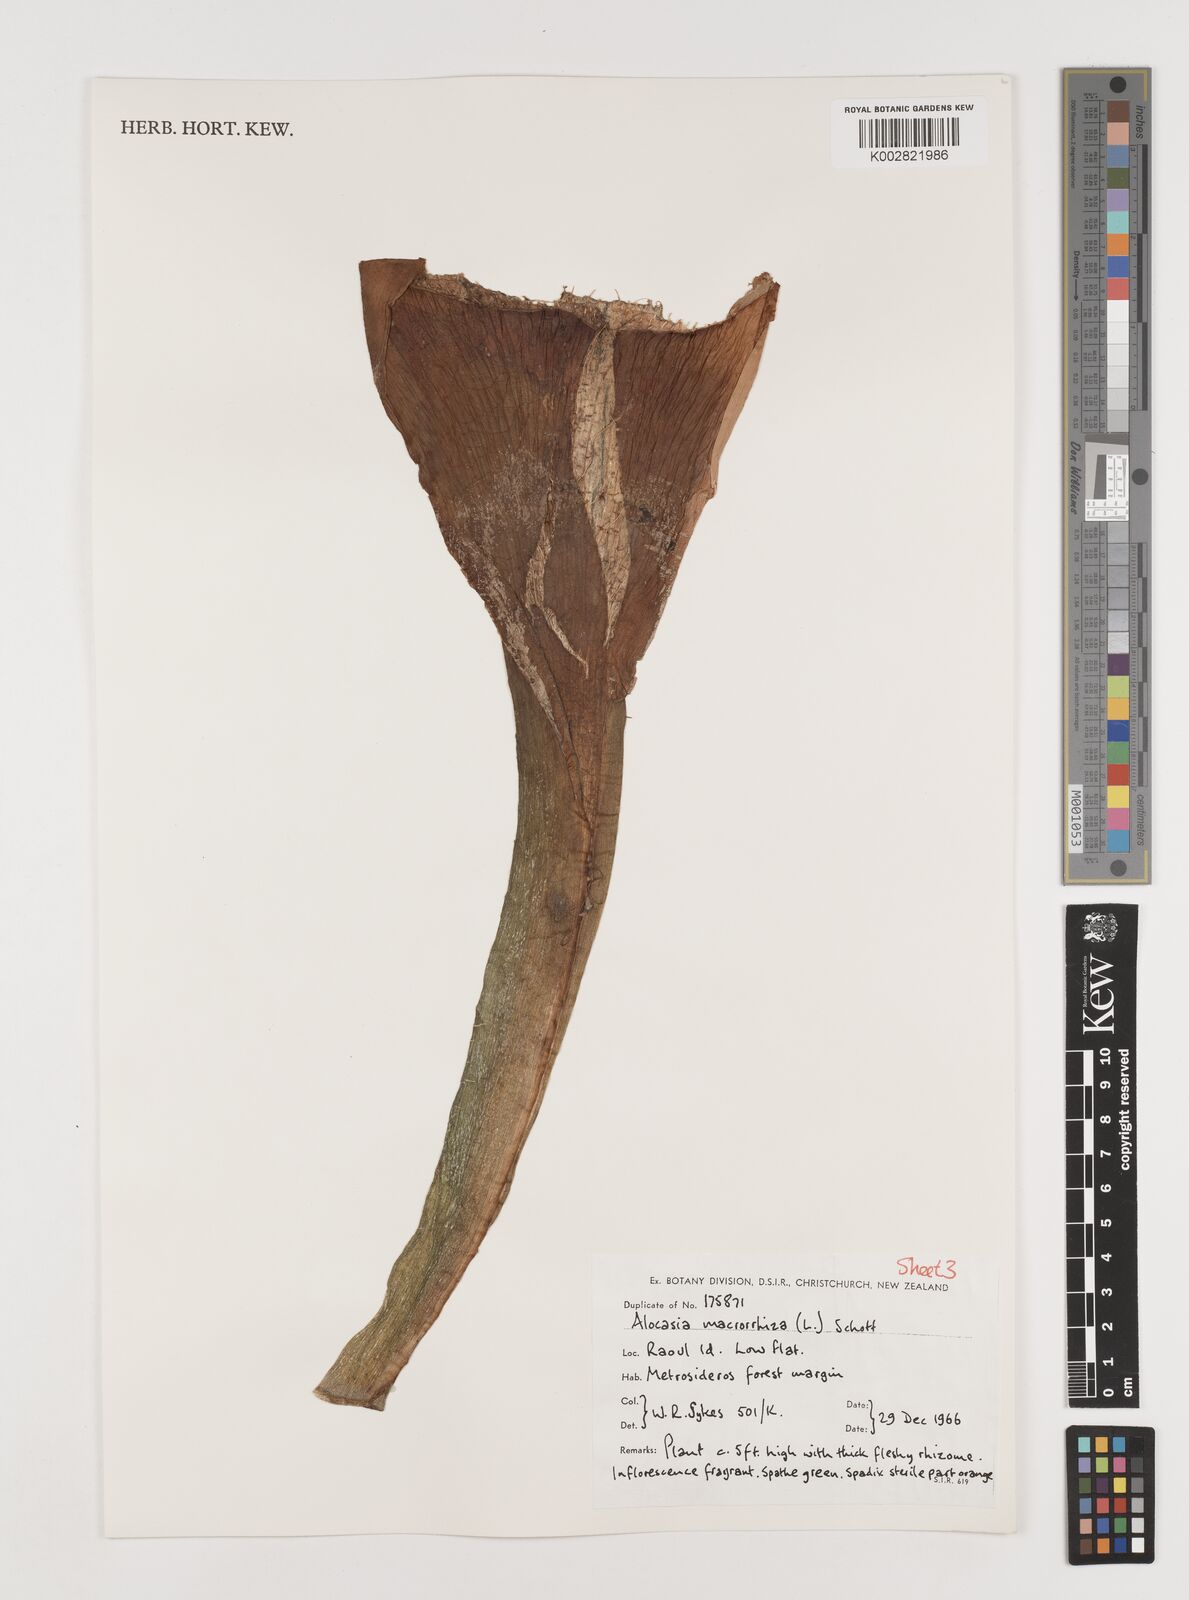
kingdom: Plantae
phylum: Tracheophyta
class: Liliopsida
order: Alismatales
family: Araceae
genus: Alocasia
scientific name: Alocasia macrorrhizos
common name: Giant taro
